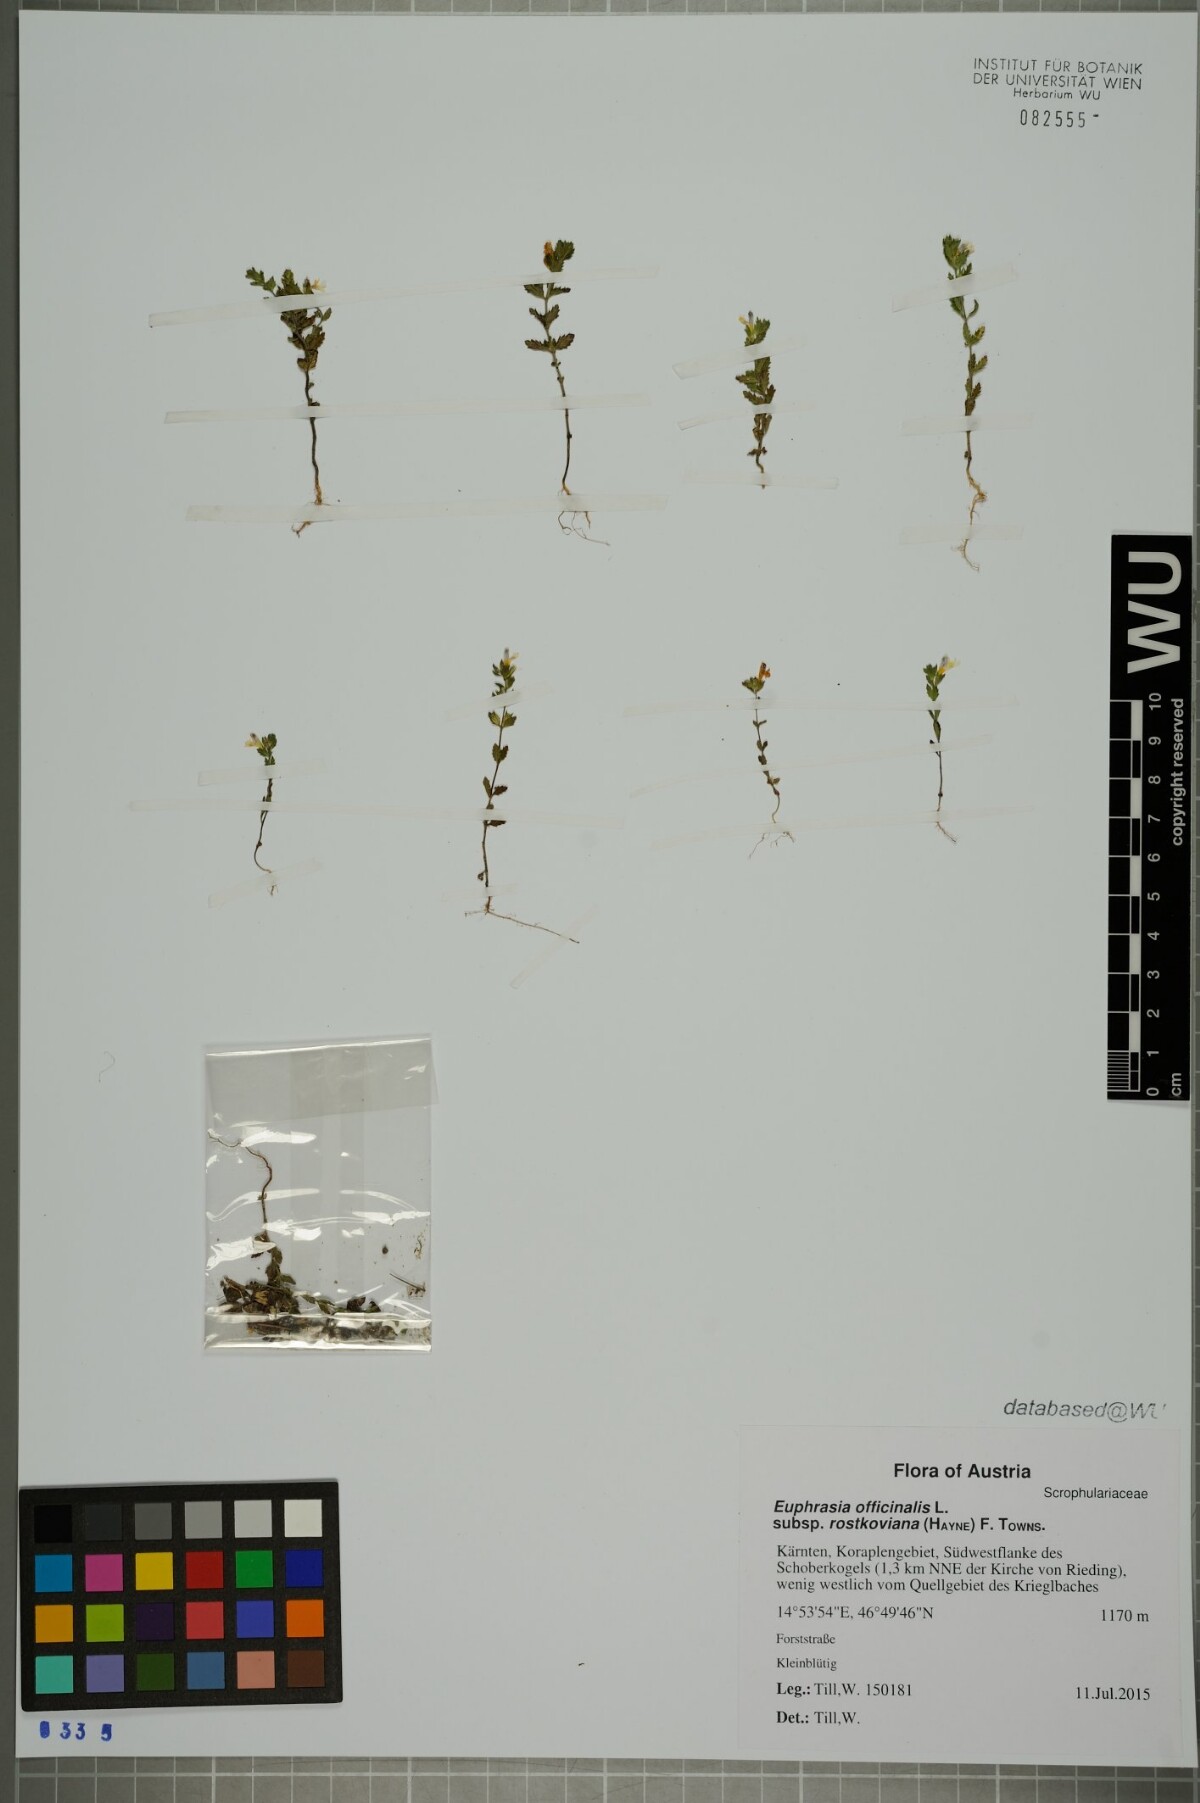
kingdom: Plantae
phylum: Tracheophyta
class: Magnoliopsida
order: Lamiales
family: Orobanchaceae
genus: Euphrasia
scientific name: Euphrasia officinalis
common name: Eyebright
